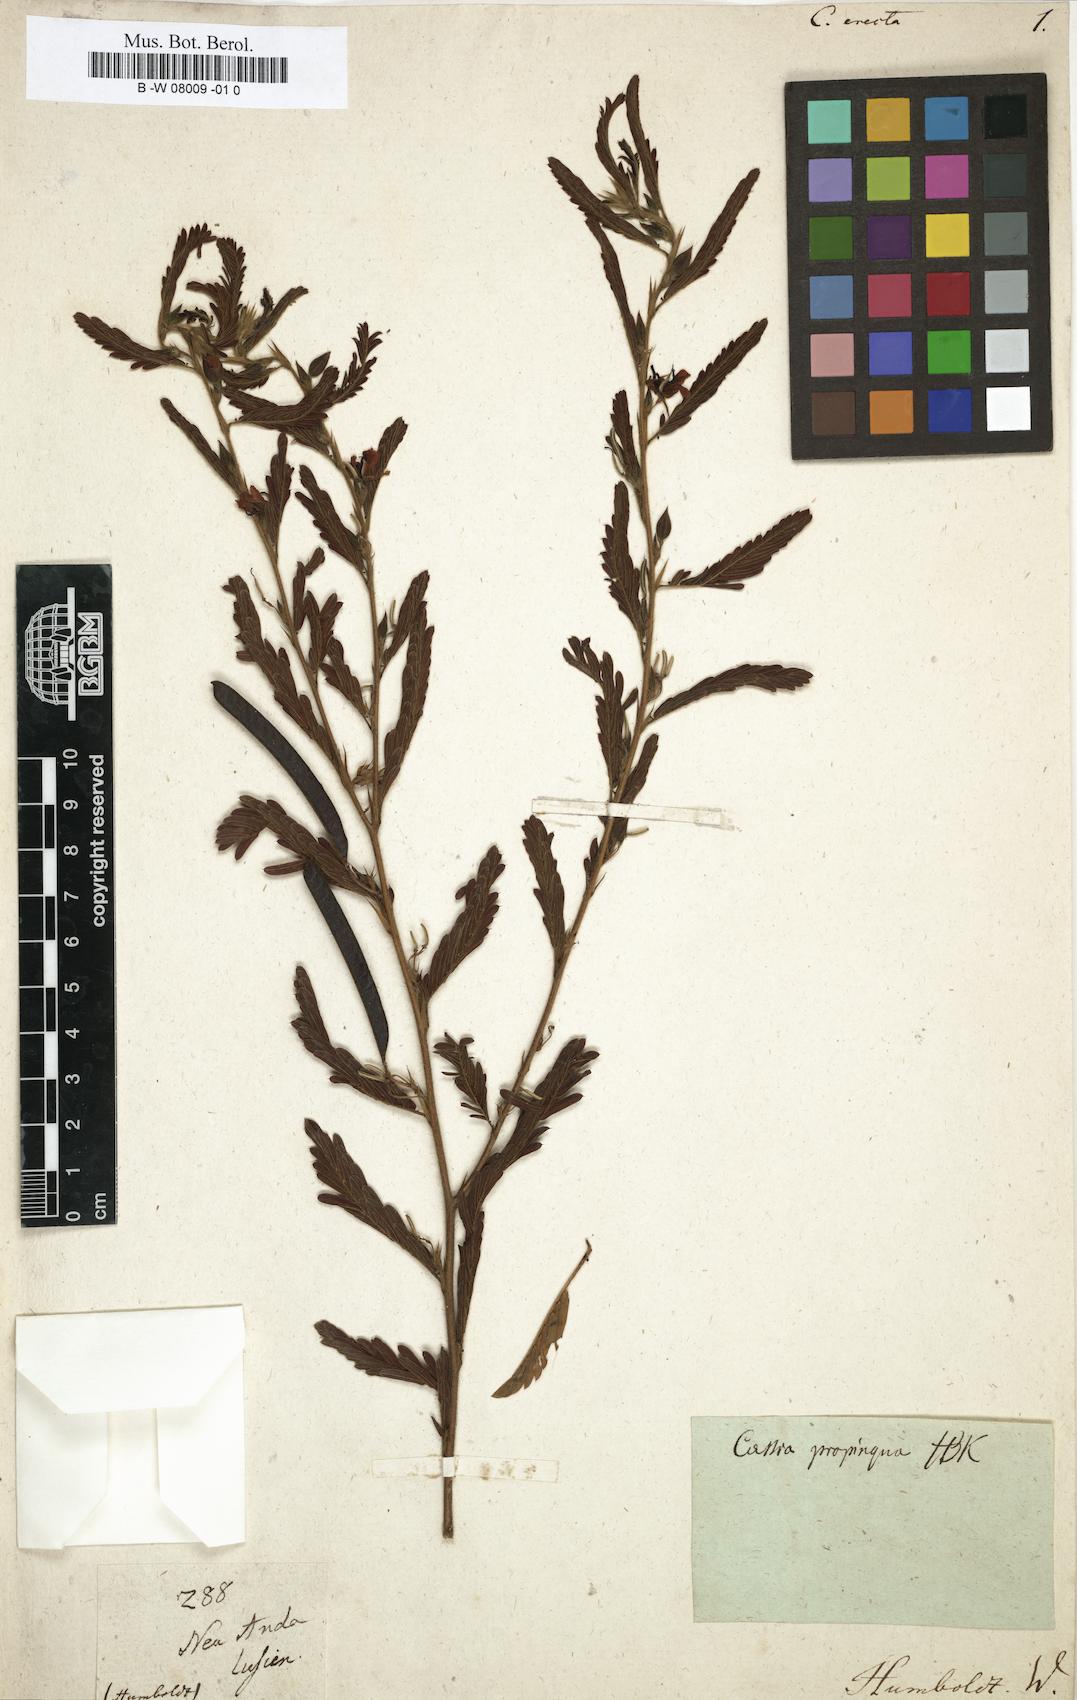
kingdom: Plantae
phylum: Tracheophyta
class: Magnoliopsida
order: Fabales
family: Fabaceae
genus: Chamaecrista
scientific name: Chamaecrista nictitans
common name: Sensitive cassia
